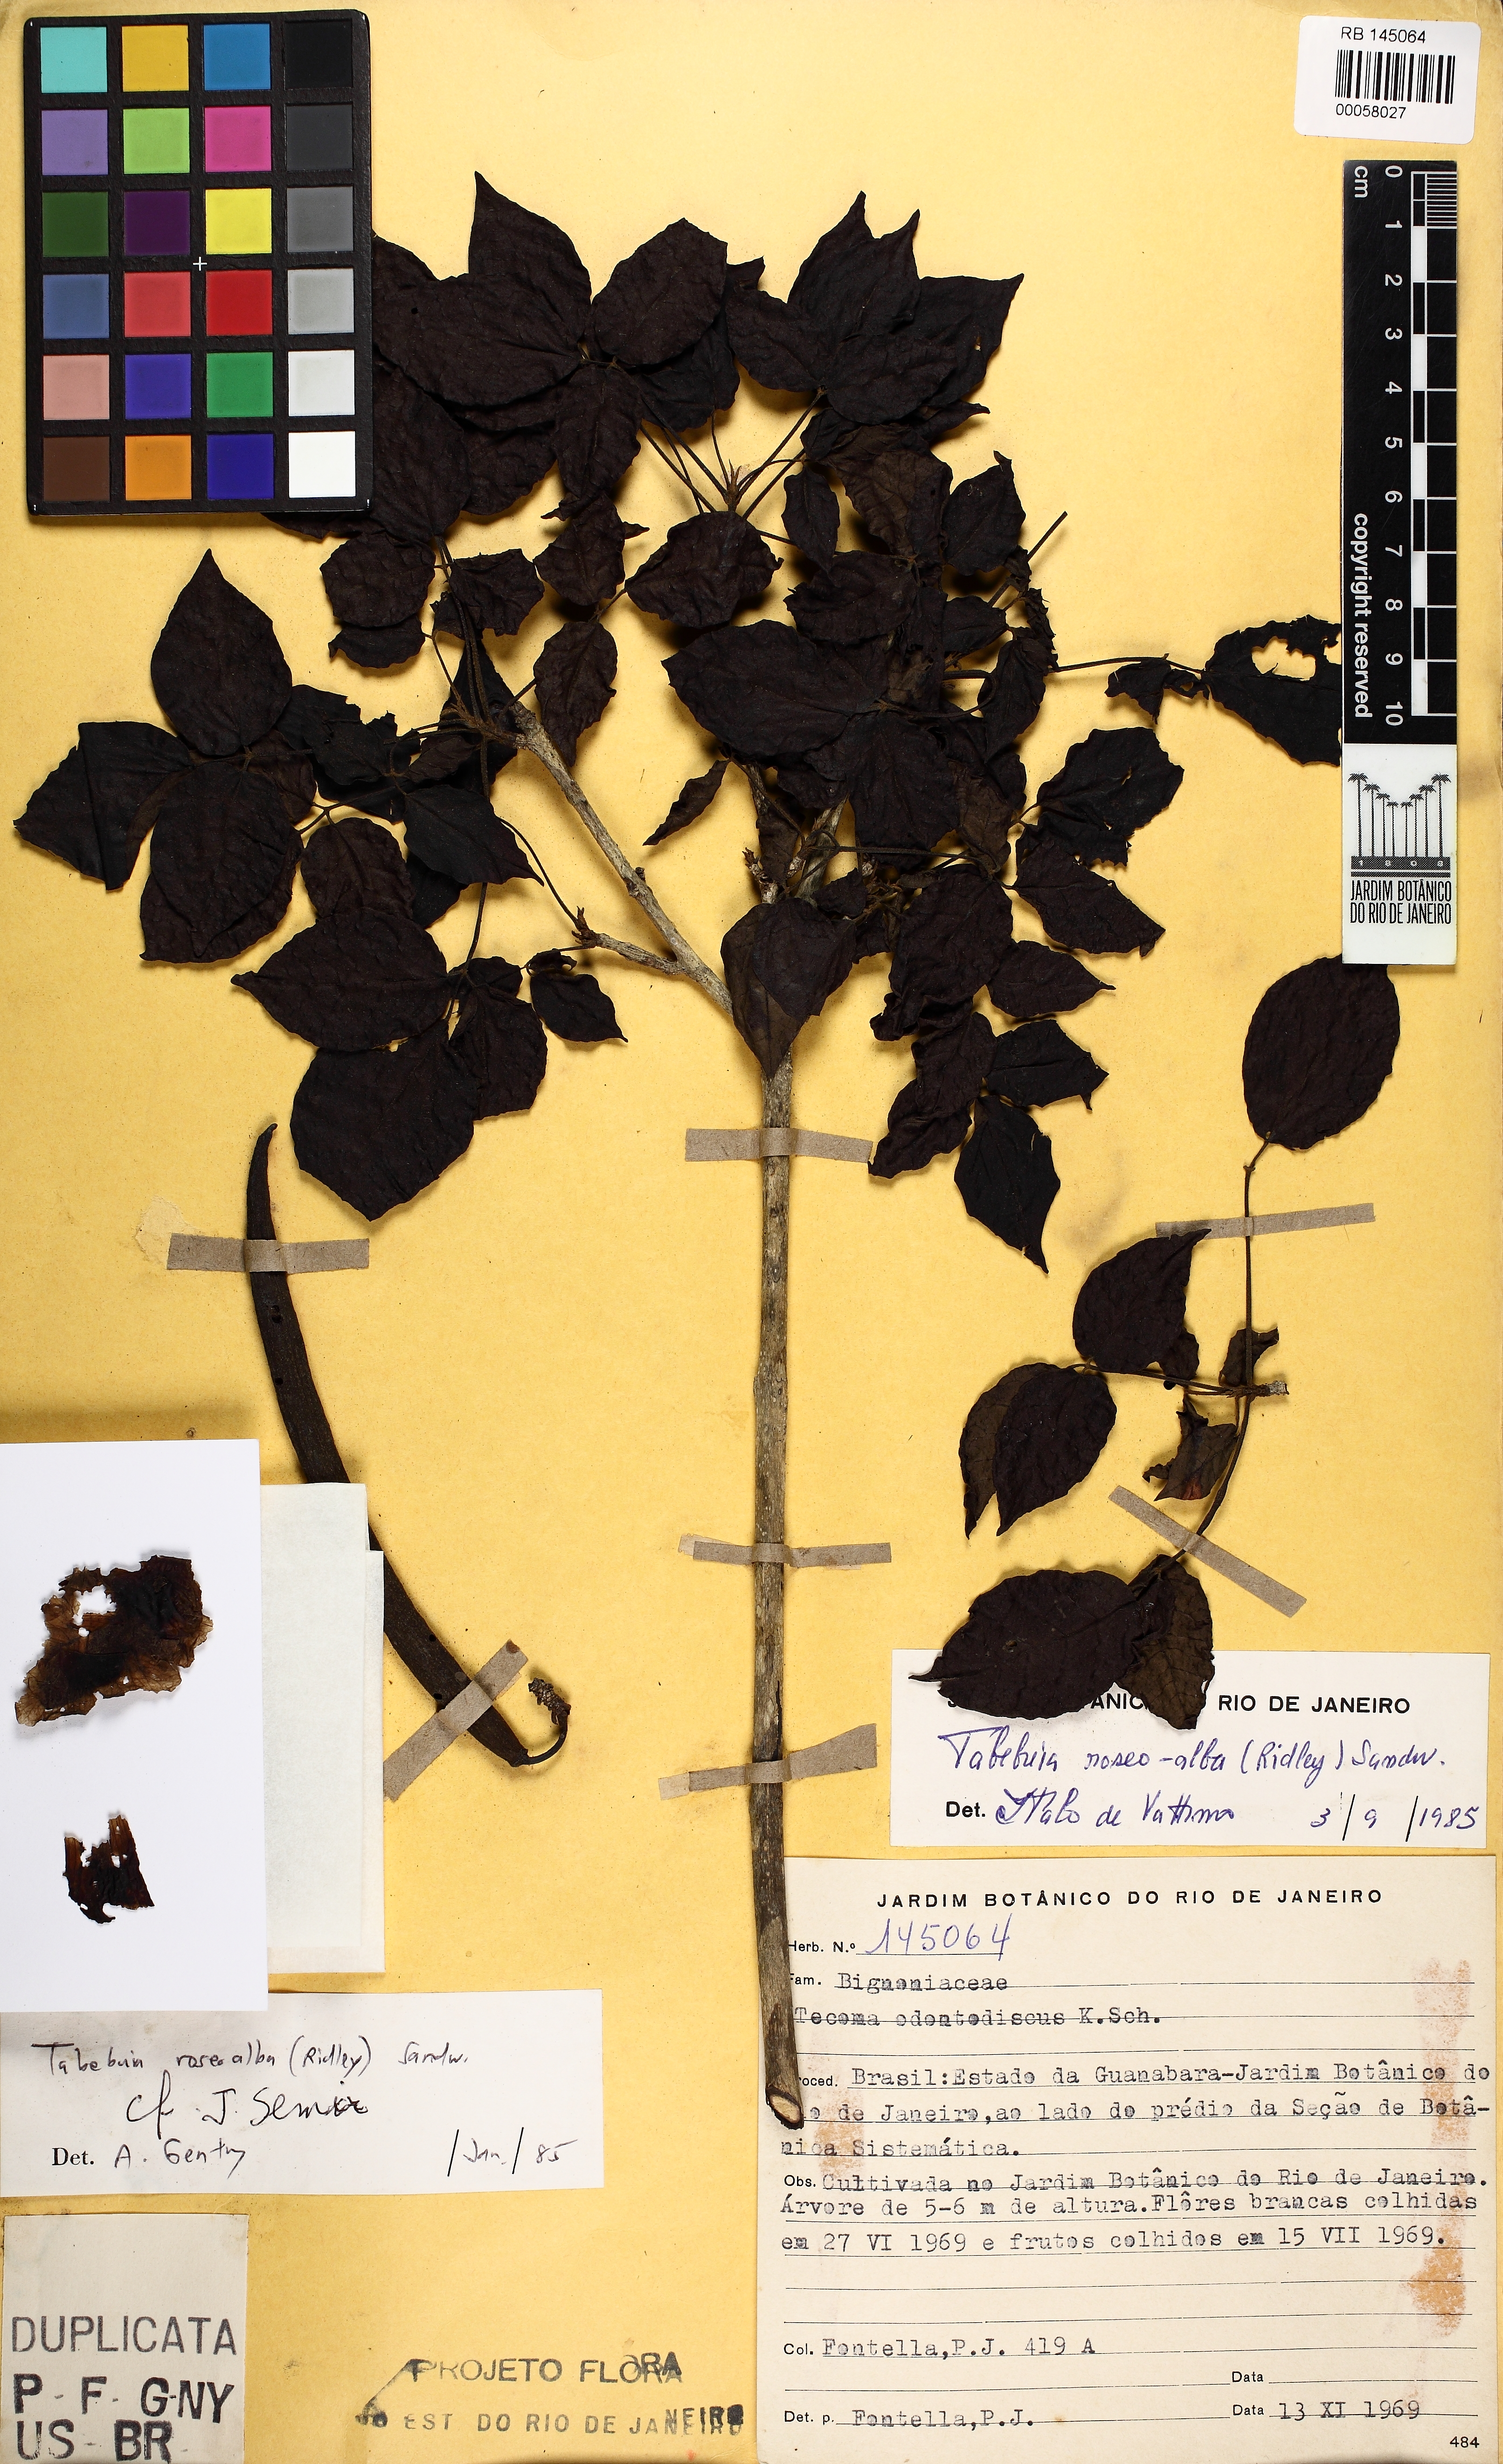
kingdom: Plantae
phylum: Tracheophyta
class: Magnoliopsida
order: Lamiales
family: Bignoniaceae
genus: Tabebuia
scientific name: Tabebuia roseoalba
